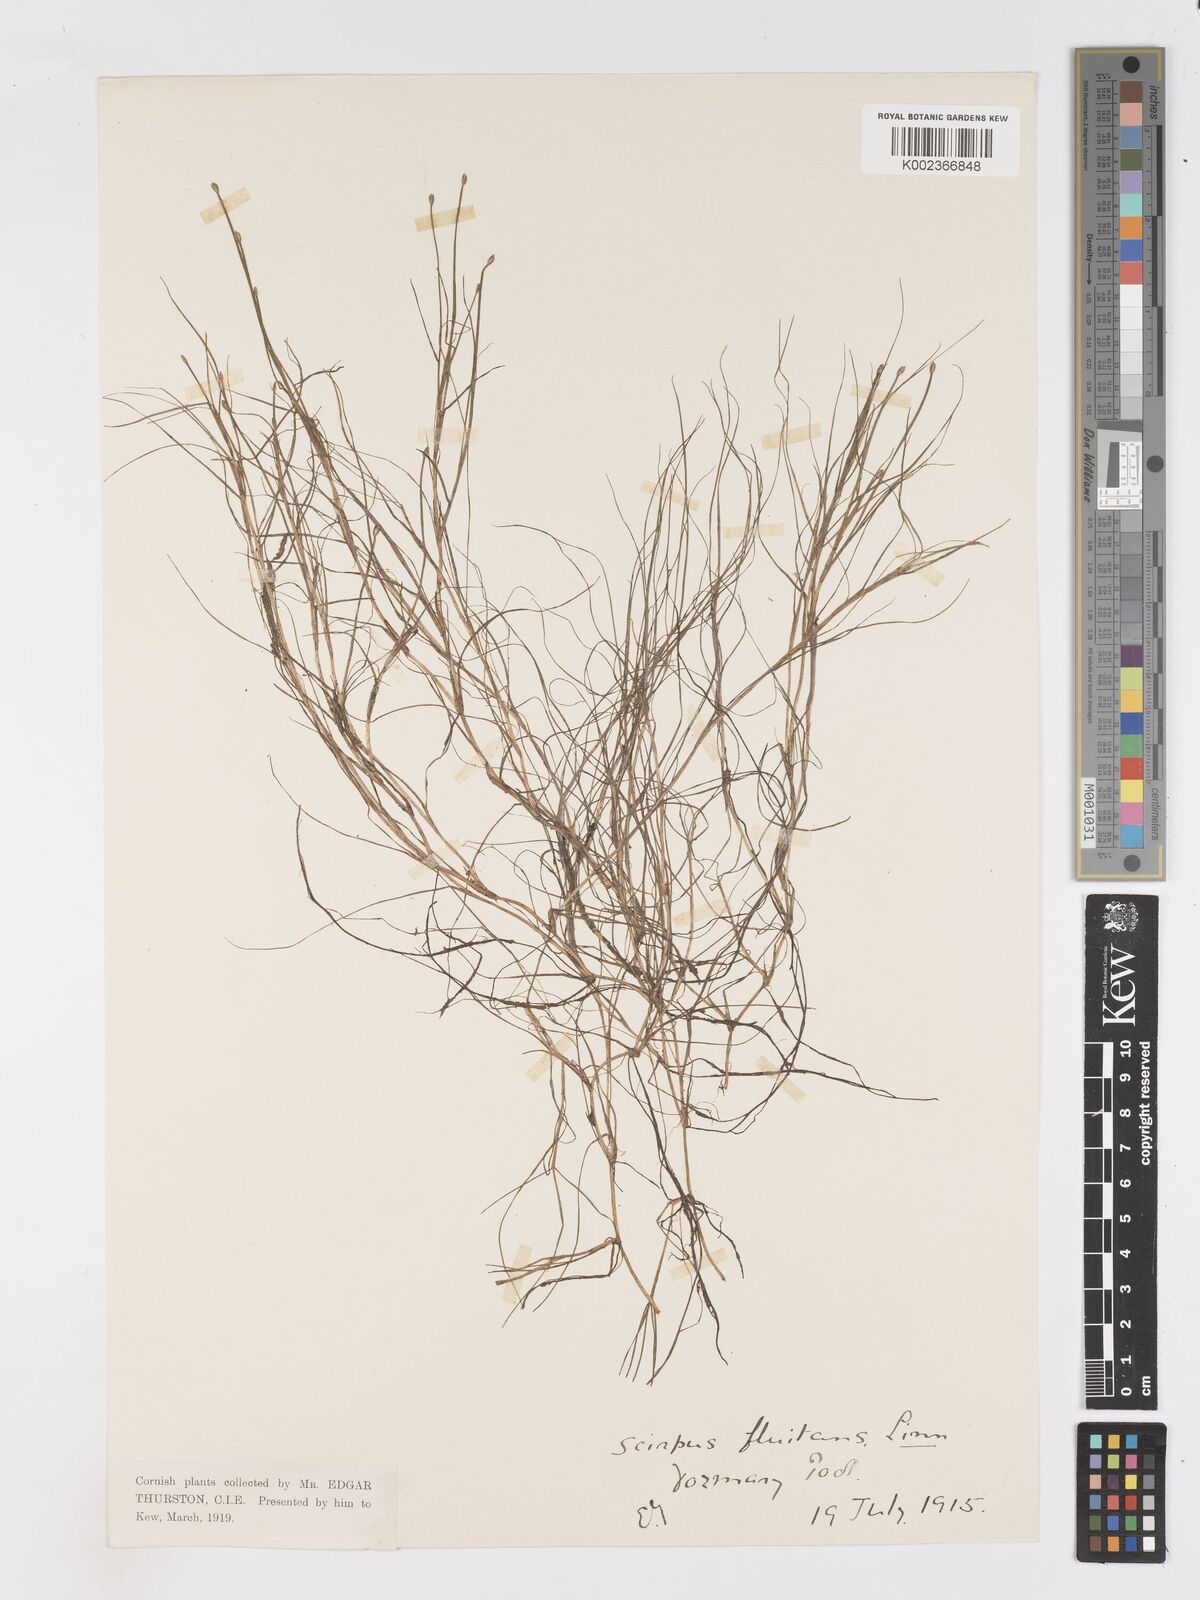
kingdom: Plantae
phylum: Tracheophyta
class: Liliopsida
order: Poales
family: Cyperaceae
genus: Isolepis
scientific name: Isolepis fluitans
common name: Floating club-rush
